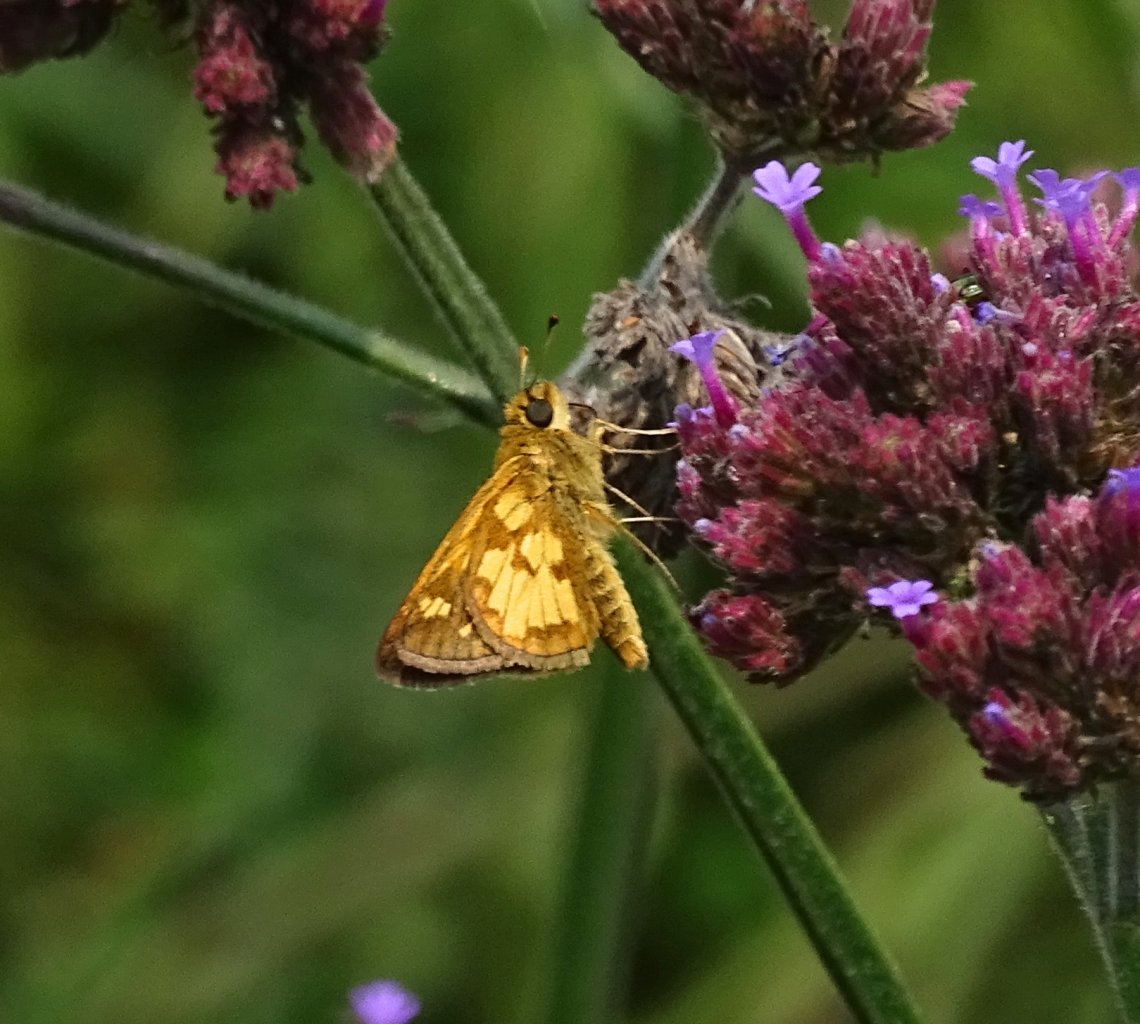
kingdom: Animalia
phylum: Arthropoda
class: Insecta
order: Lepidoptera
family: Hesperiidae
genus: Polites
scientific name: Polites coras
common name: Peck's Skipper
